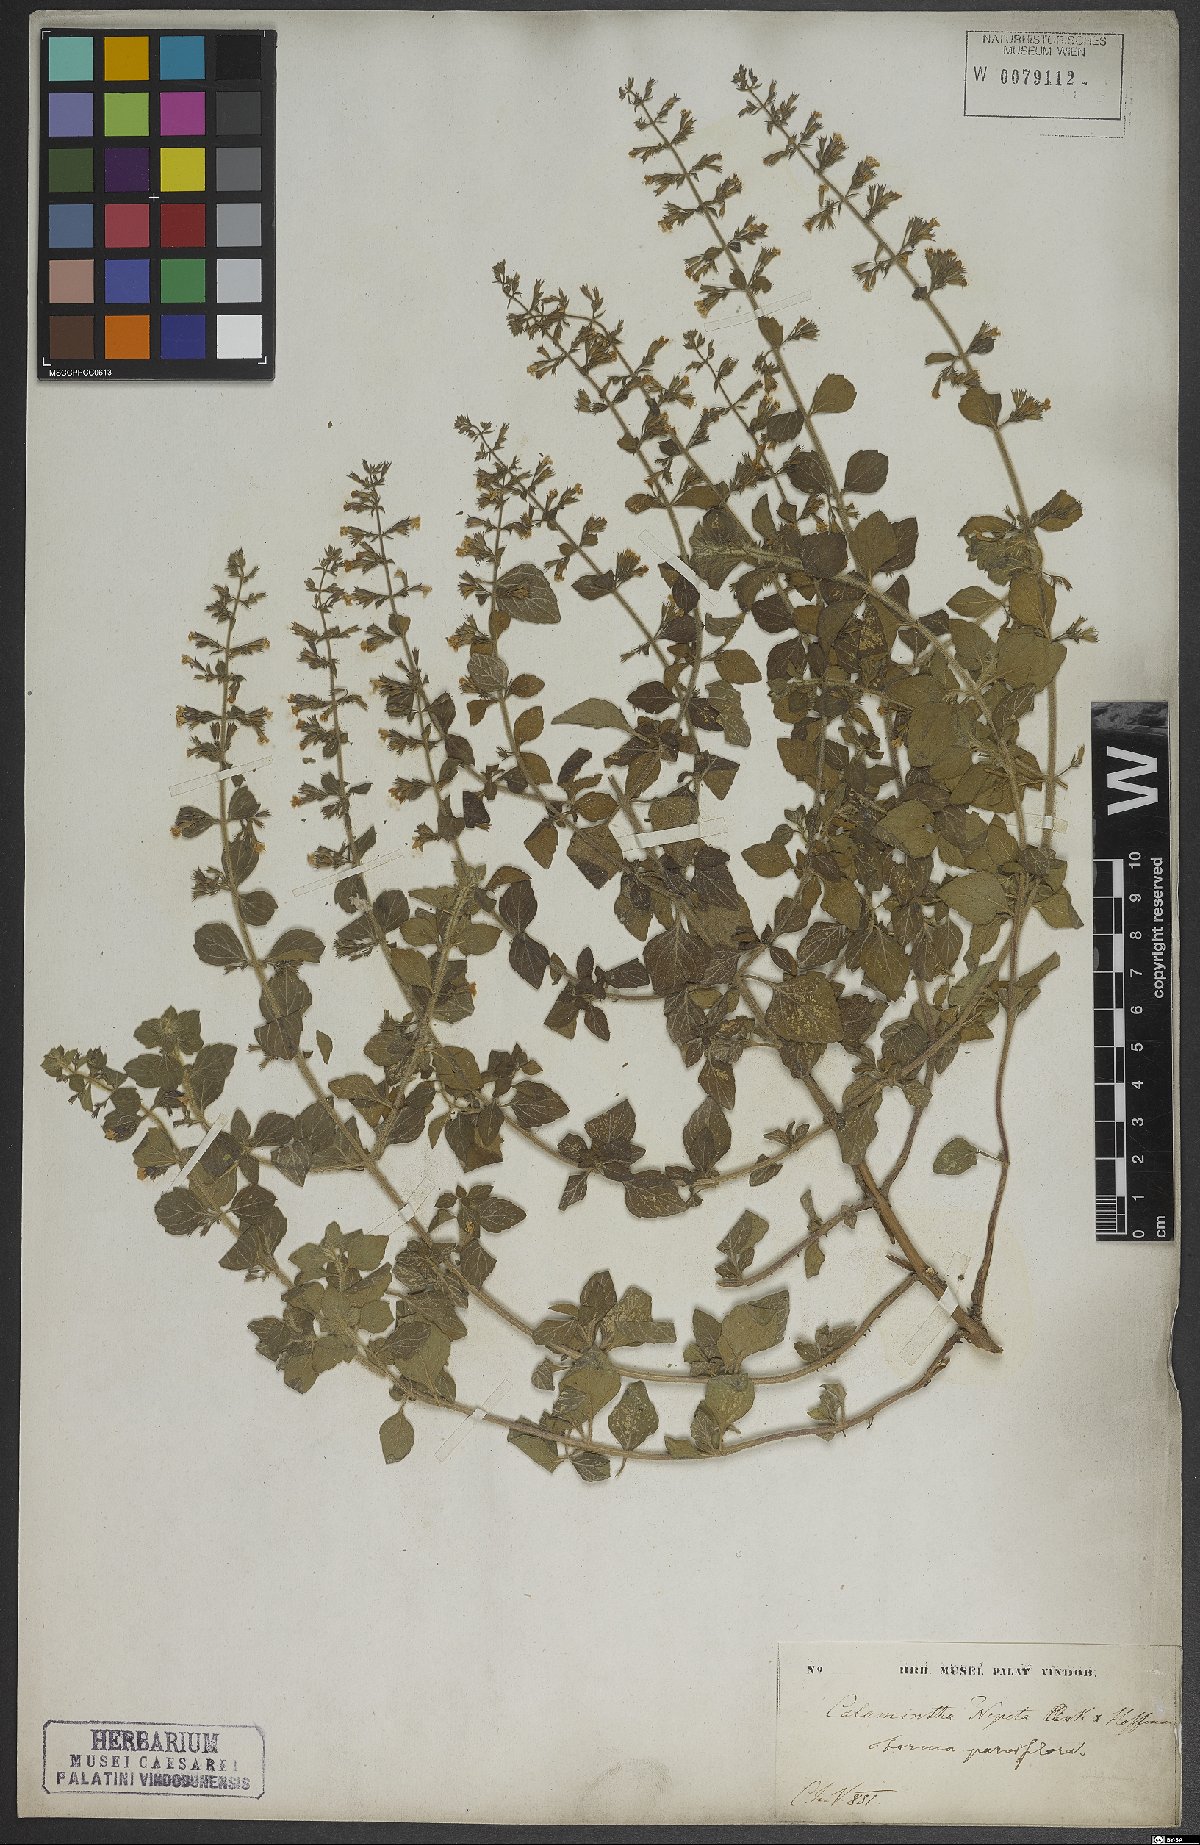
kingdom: Plantae
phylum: Tracheophyta
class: Magnoliopsida
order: Lamiales
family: Lamiaceae
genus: Clinopodium
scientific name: Clinopodium nepeta
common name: Lesser calamint
